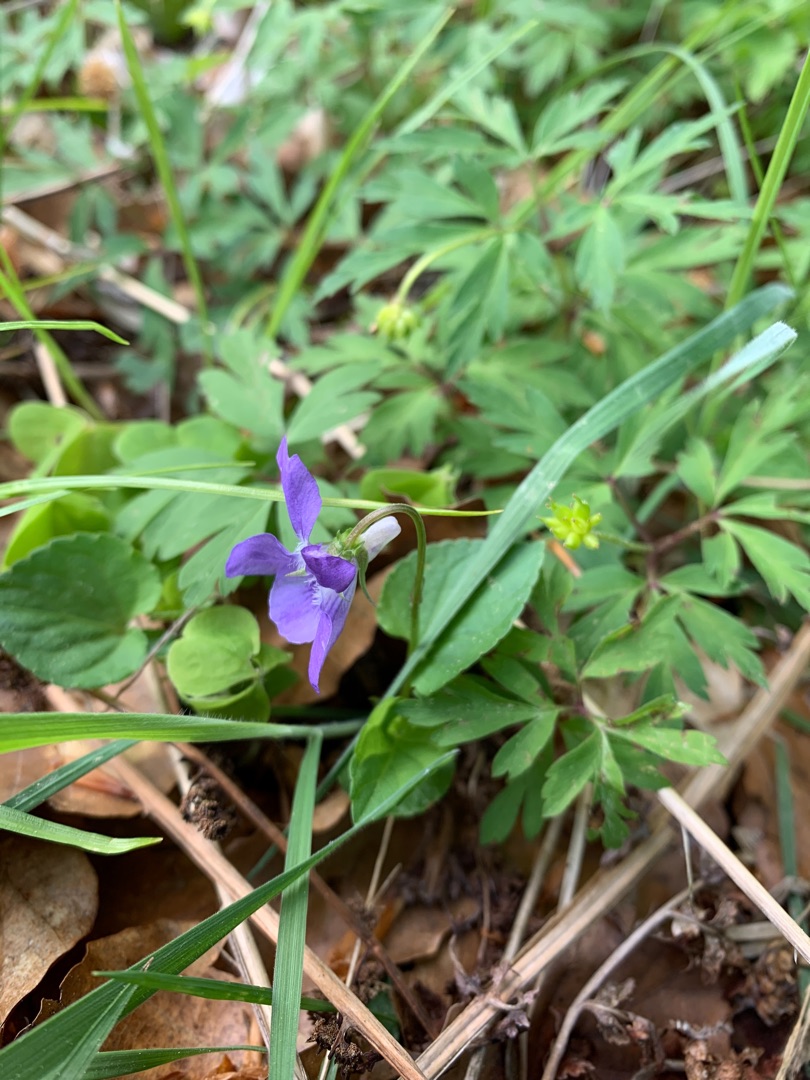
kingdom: Plantae
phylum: Tracheophyta
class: Magnoliopsida
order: Malpighiales
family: Violaceae
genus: Viola
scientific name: Viola riviniana
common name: Krat-viol
